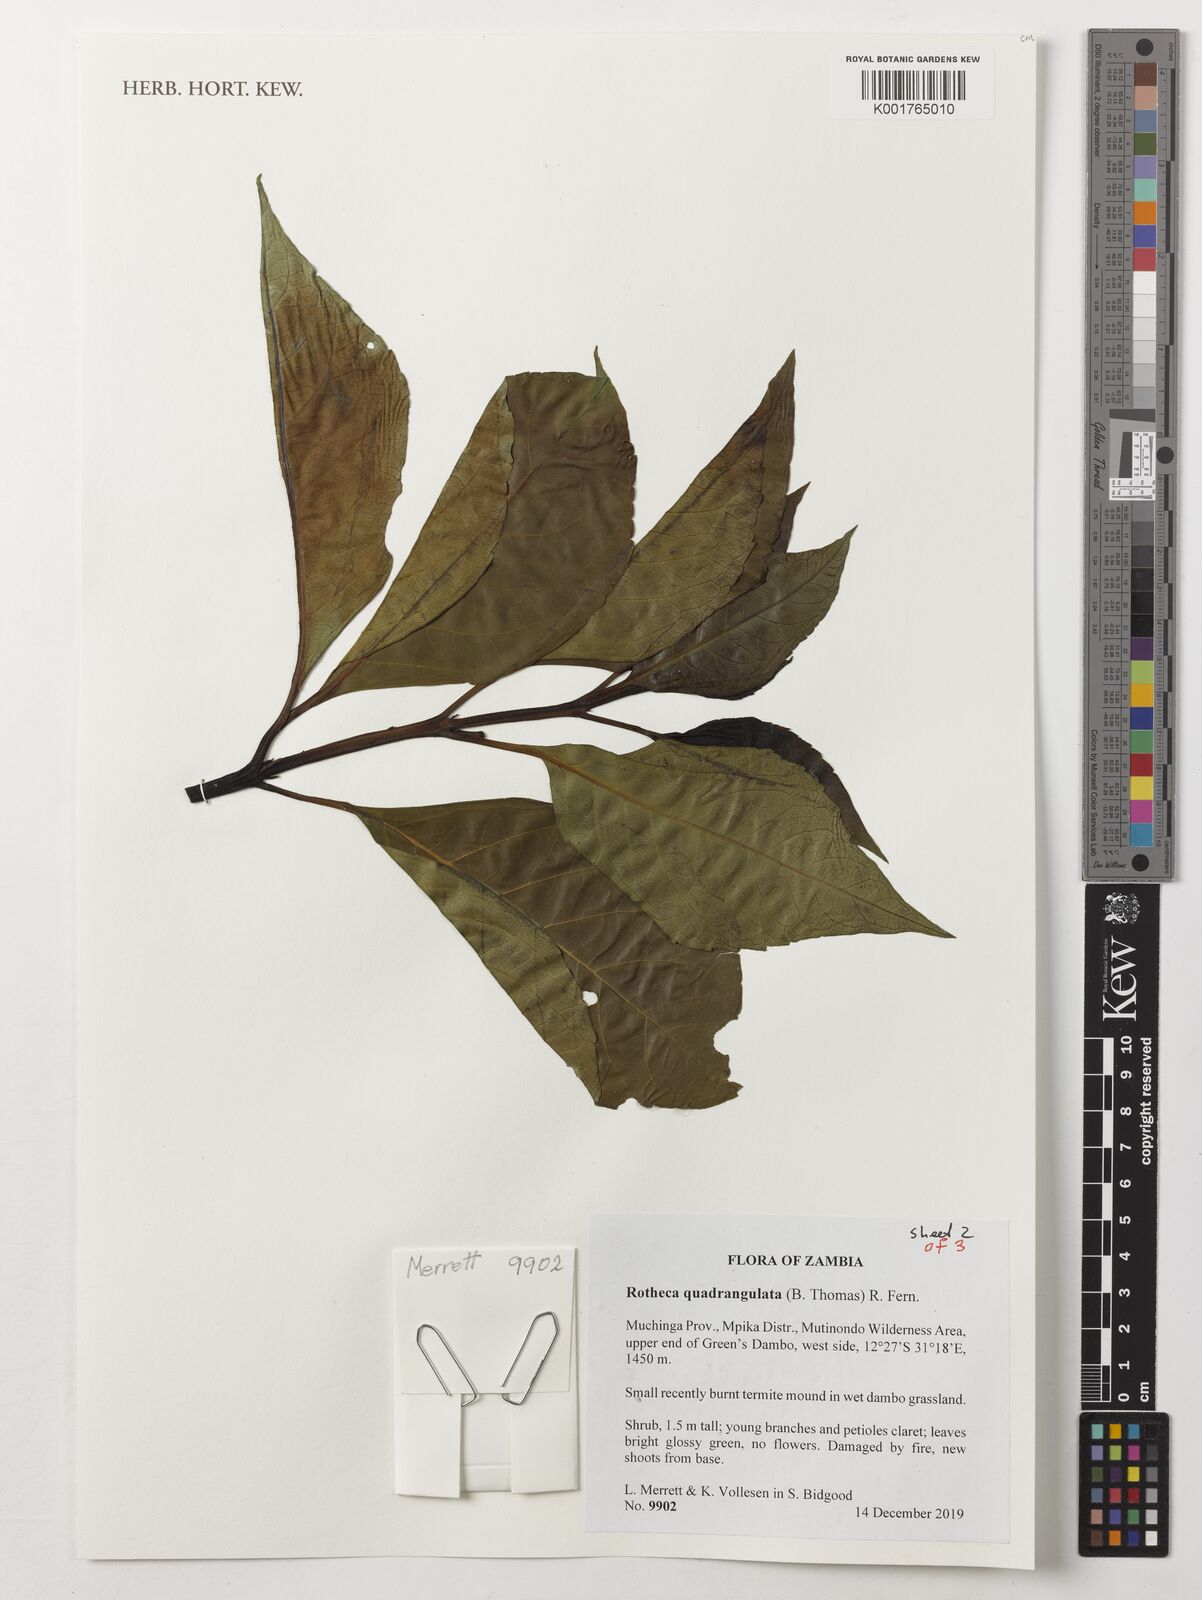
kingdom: Plantae
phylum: Tracheophyta
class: Magnoliopsida
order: Lamiales
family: Lamiaceae
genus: Rotheca
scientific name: Rotheca quadrangulata
